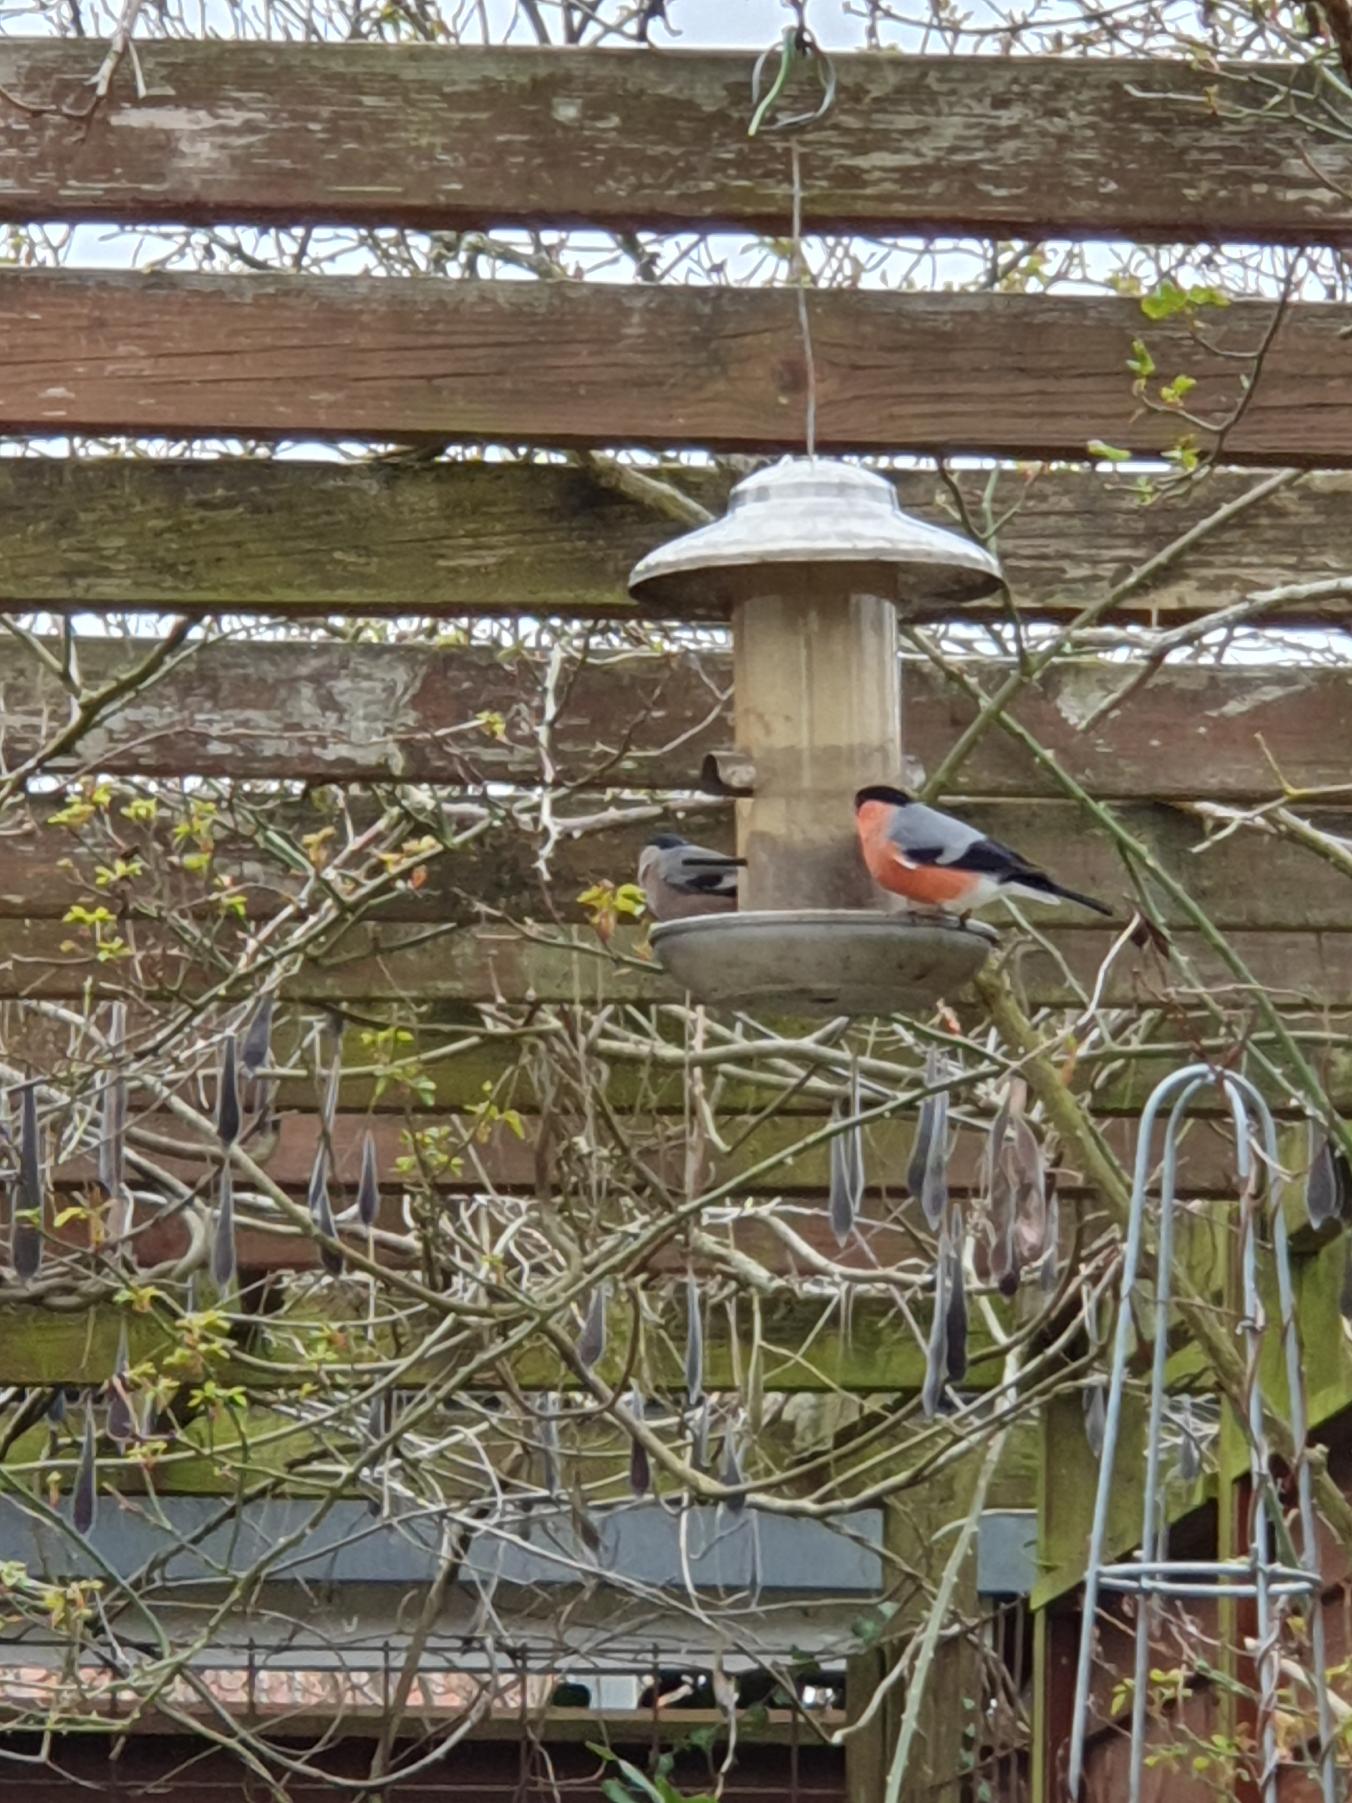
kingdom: Animalia
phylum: Chordata
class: Aves
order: Passeriformes
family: Fringillidae
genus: Pyrrhula
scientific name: Pyrrhula pyrrhula
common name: Dompap
